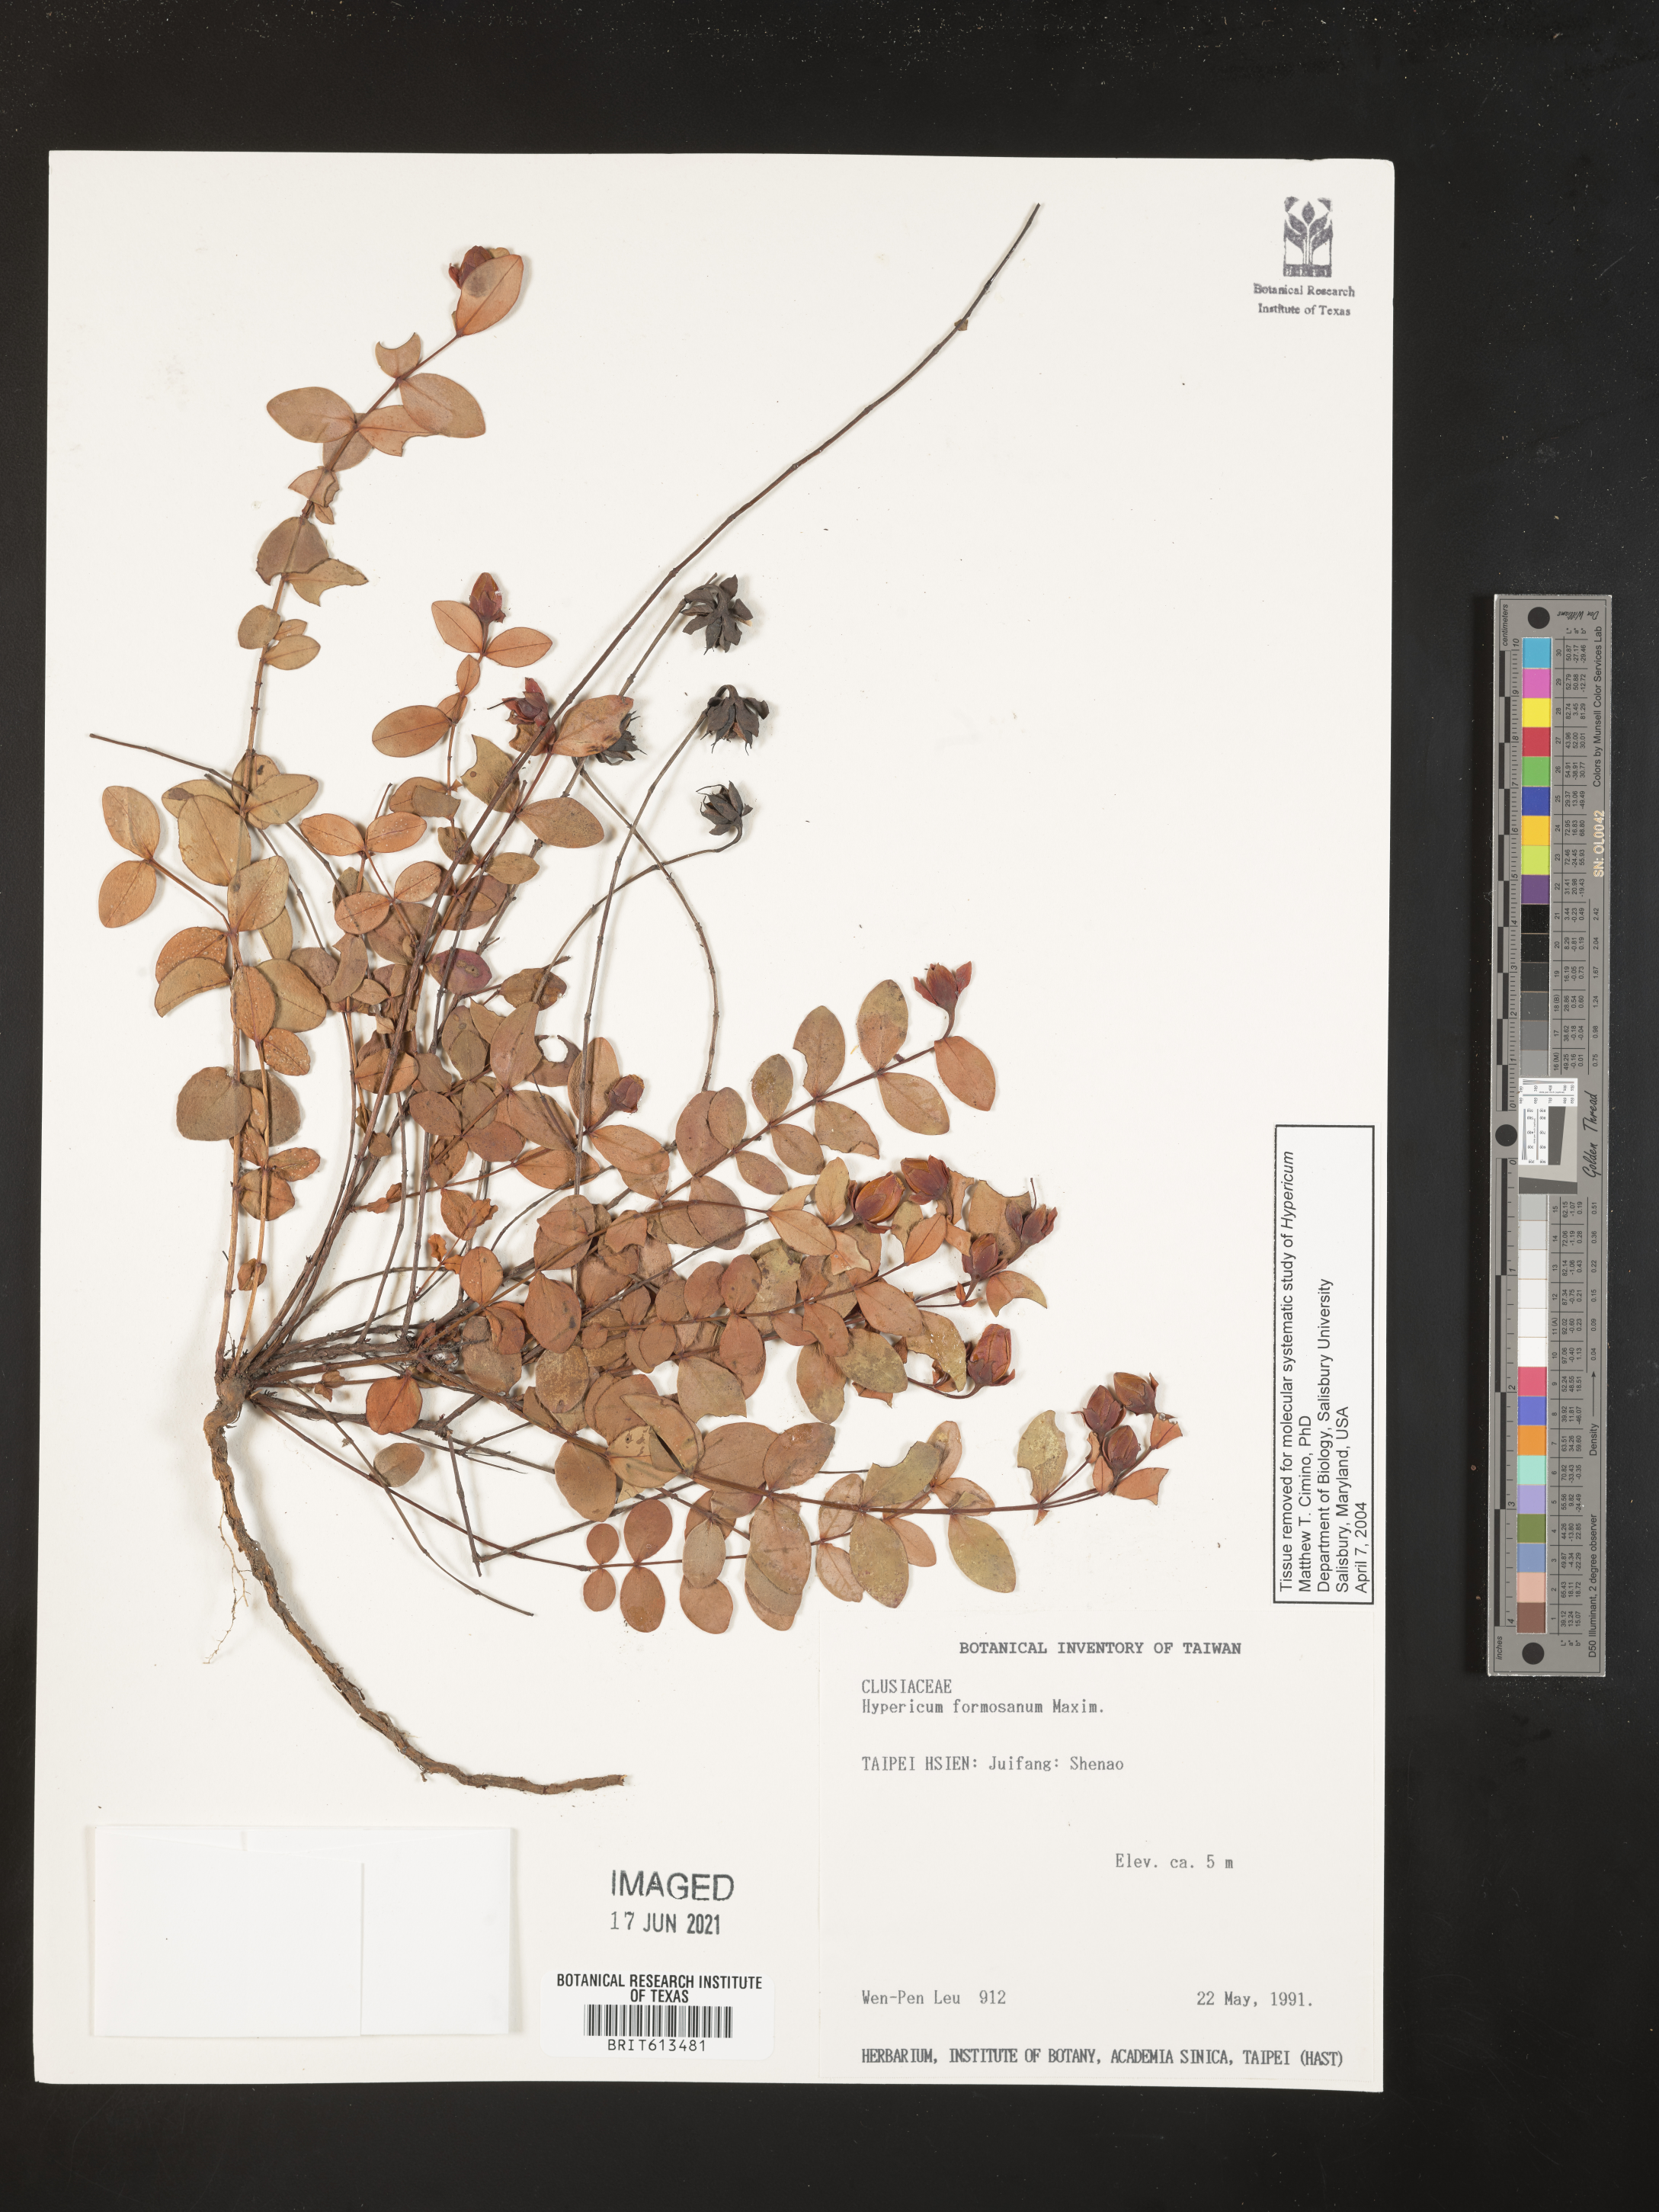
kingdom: Plantae
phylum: Tracheophyta
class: Magnoliopsida
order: Malpighiales
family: Hypericaceae
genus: Hypericum
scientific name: Hypericum formosum
